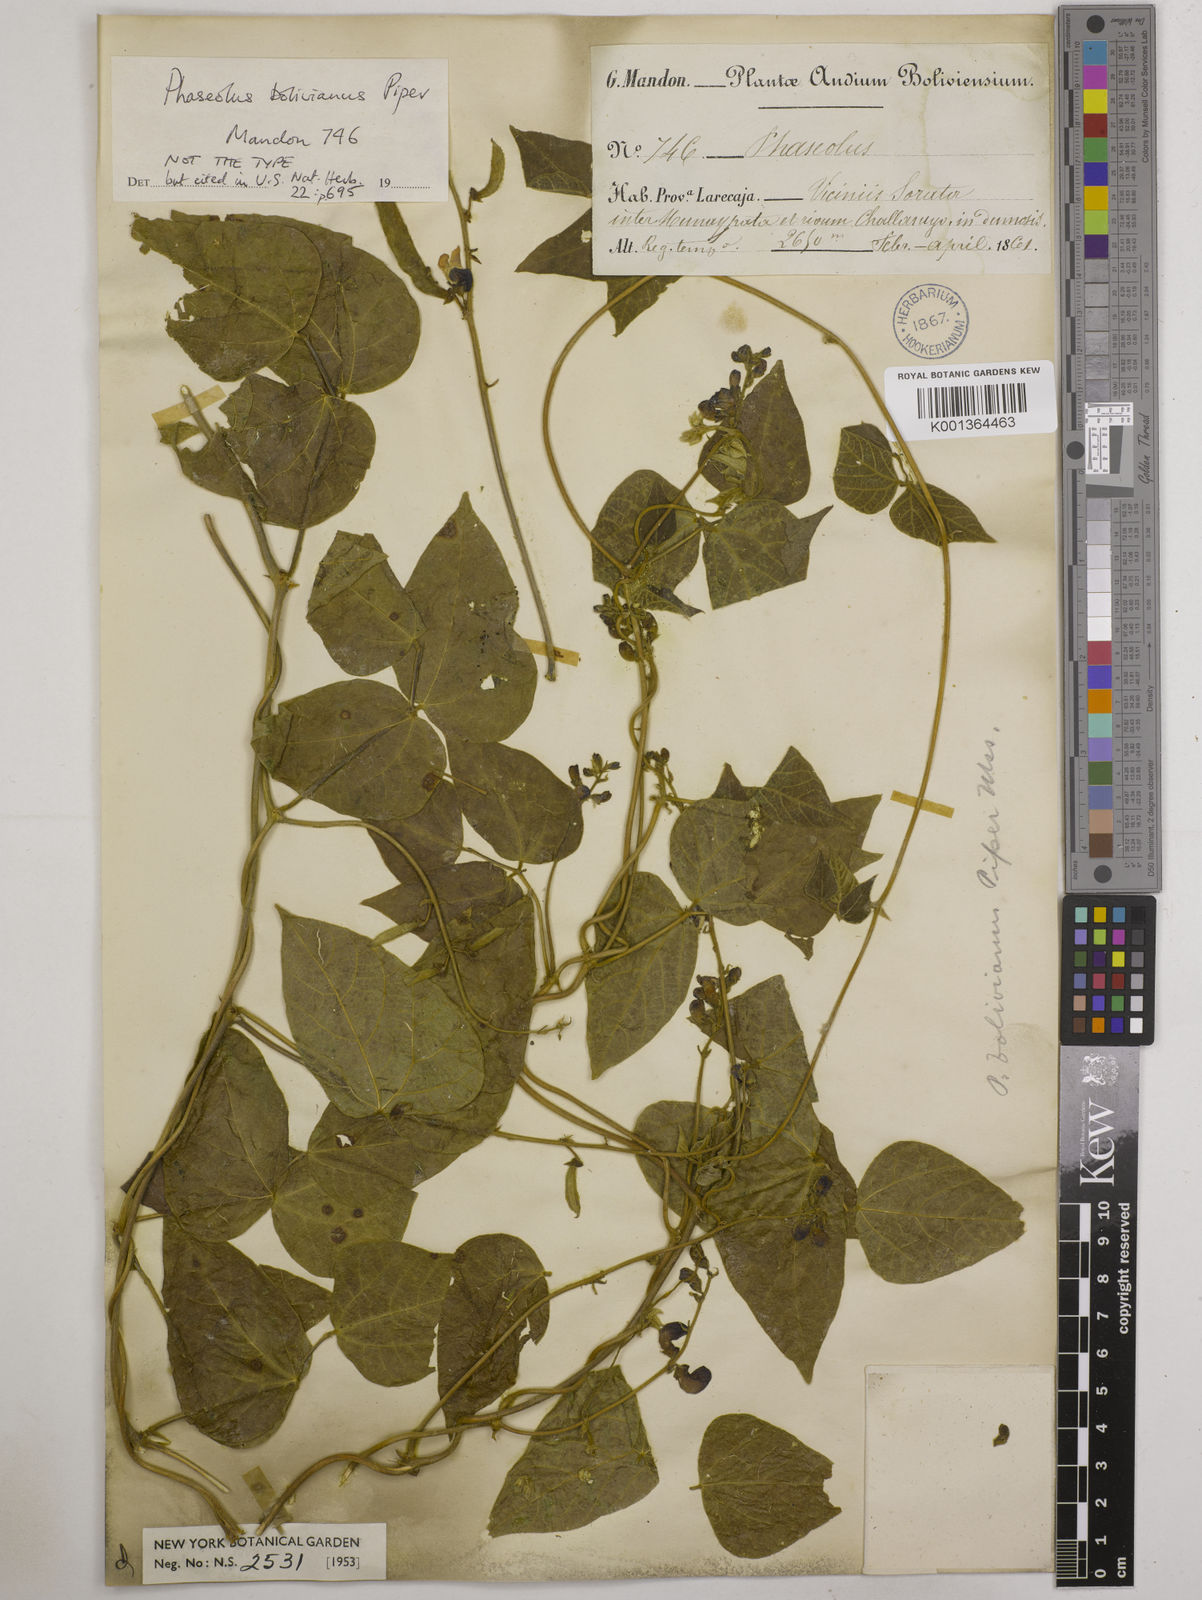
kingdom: Plantae
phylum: Tracheophyta
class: Magnoliopsida
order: Fabales
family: Fabaceae
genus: Phaseolus
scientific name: Phaseolus augusti
